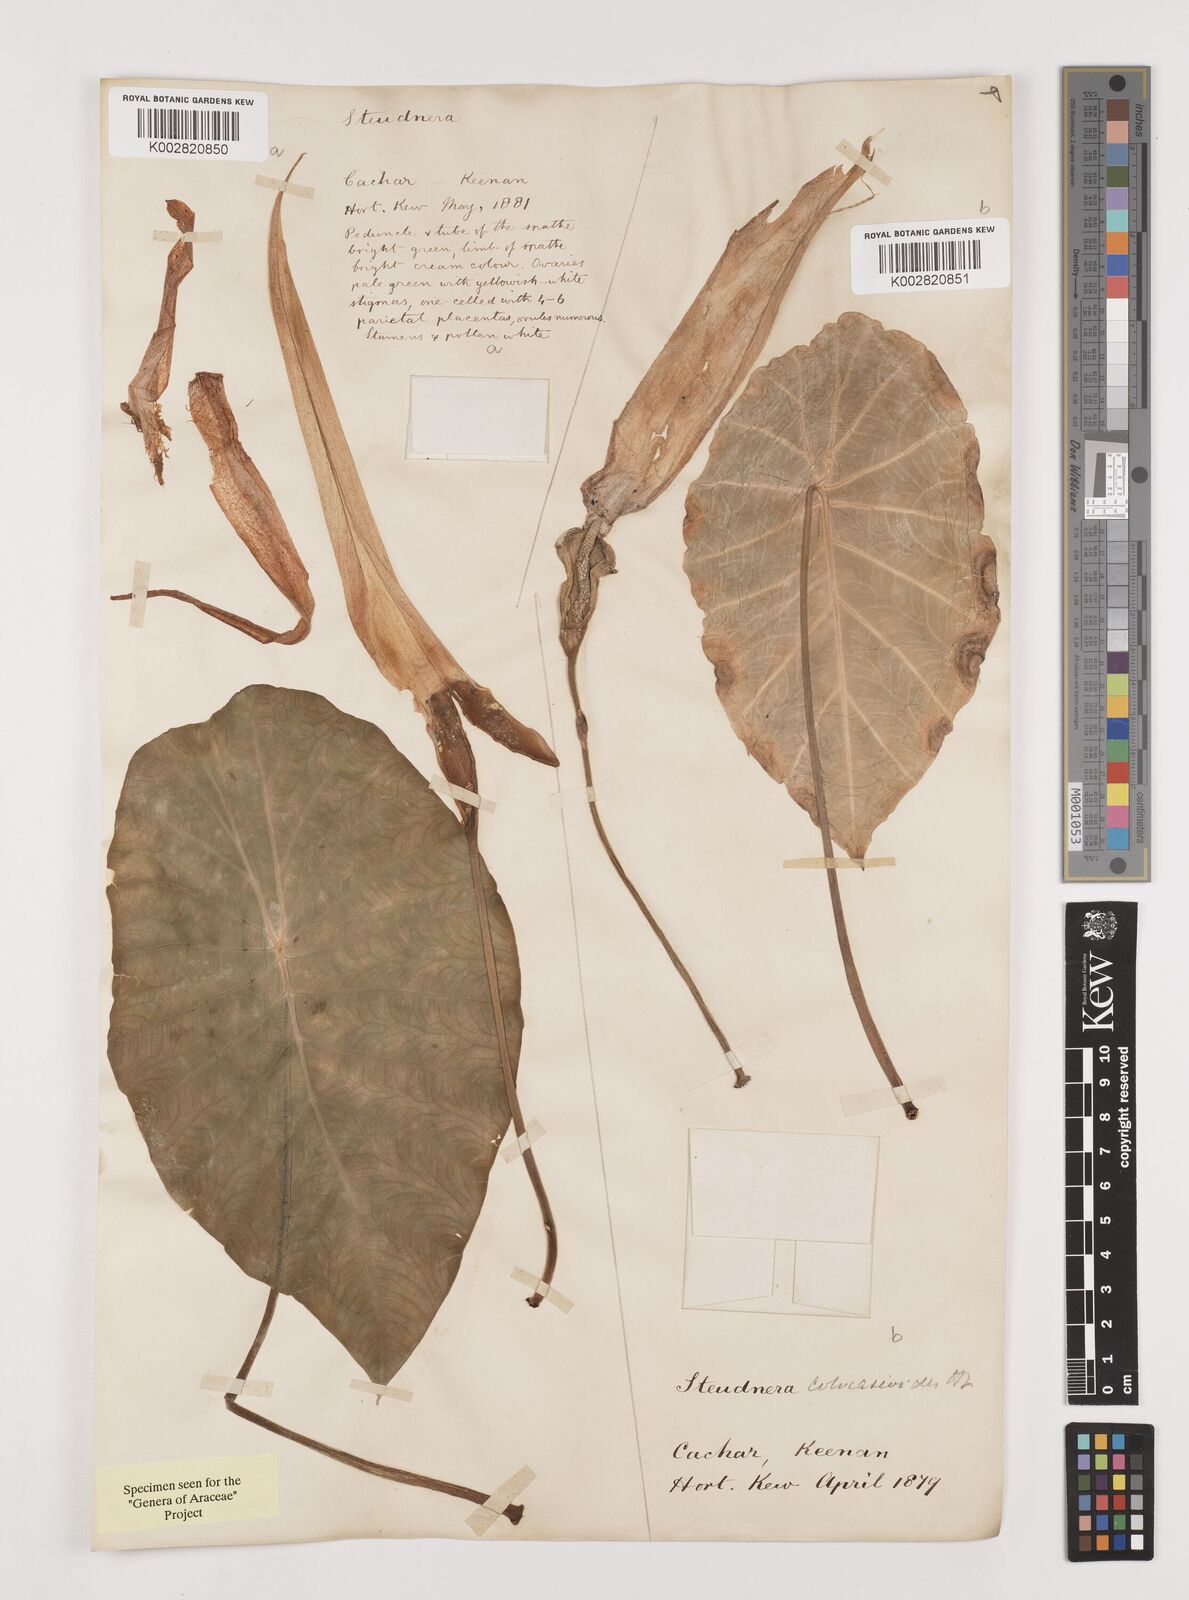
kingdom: Plantae
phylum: Tracheophyta
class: Liliopsida
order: Alismatales
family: Araceae
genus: Steudnera
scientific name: Steudnera colocasiifolia
